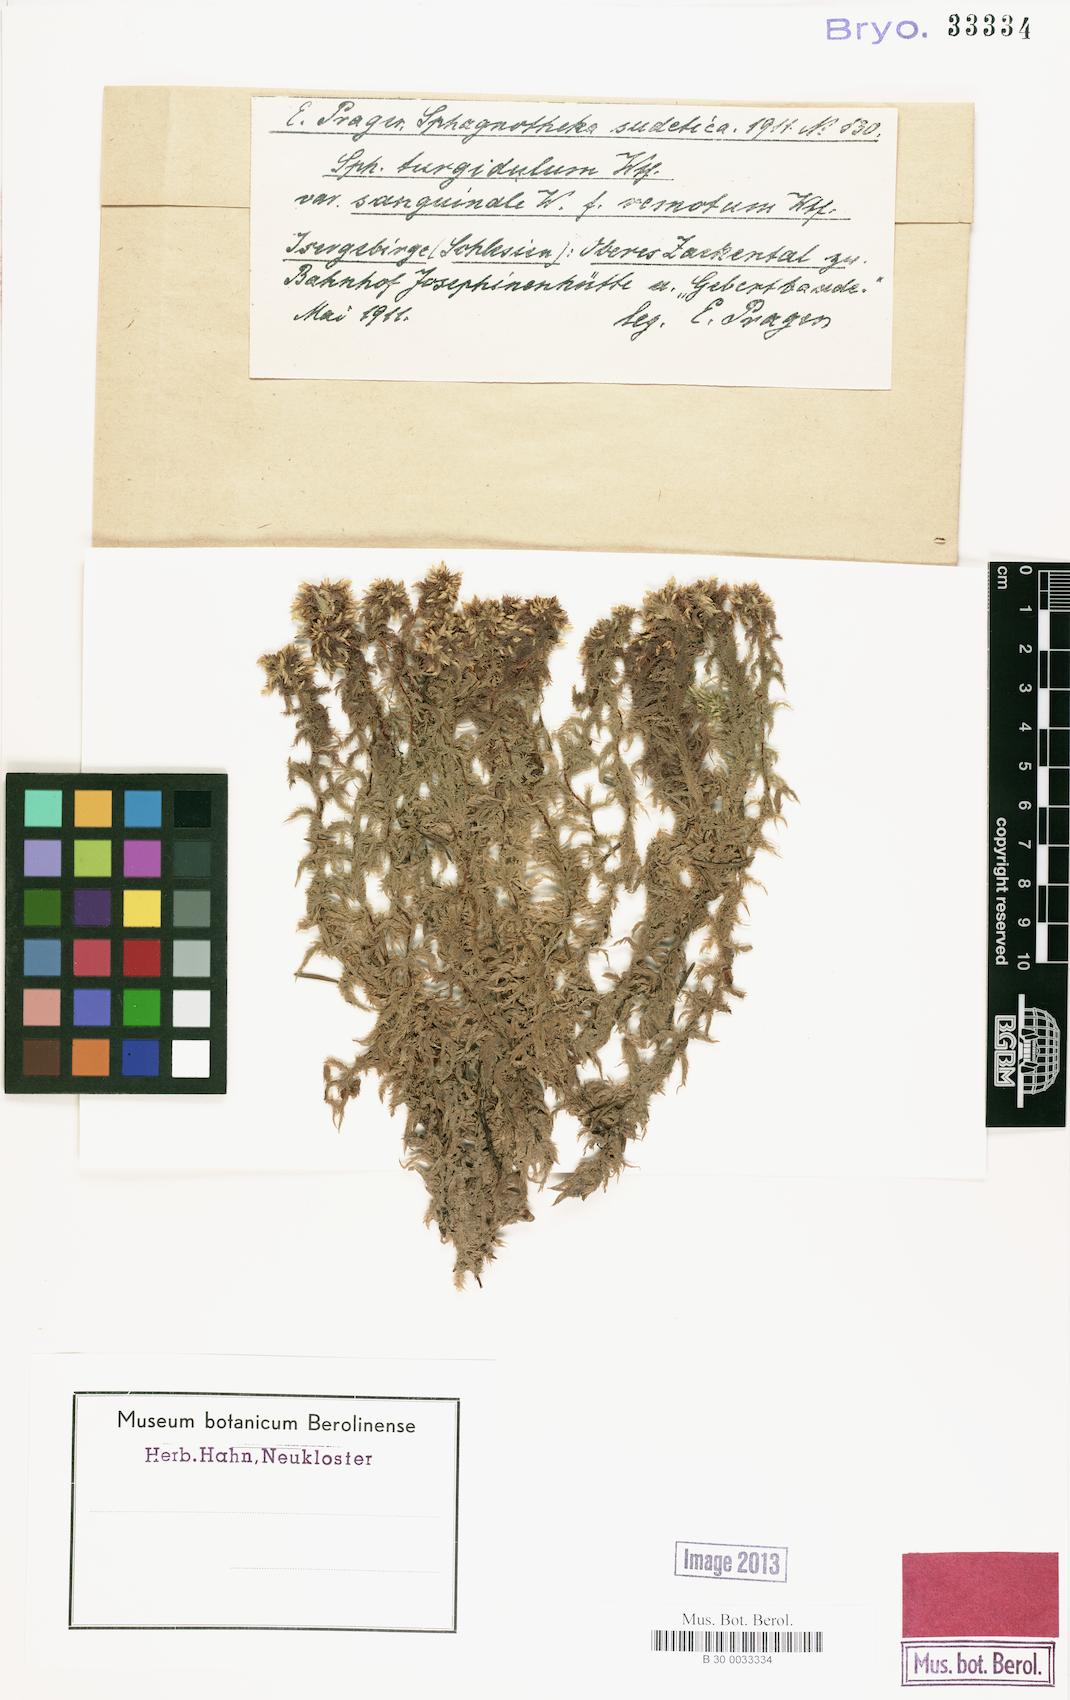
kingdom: Plantae
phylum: Bryophyta
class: Sphagnopsida
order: Sphagnales
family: Sphagnaceae
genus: Sphagnum
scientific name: Sphagnum denticulatum
